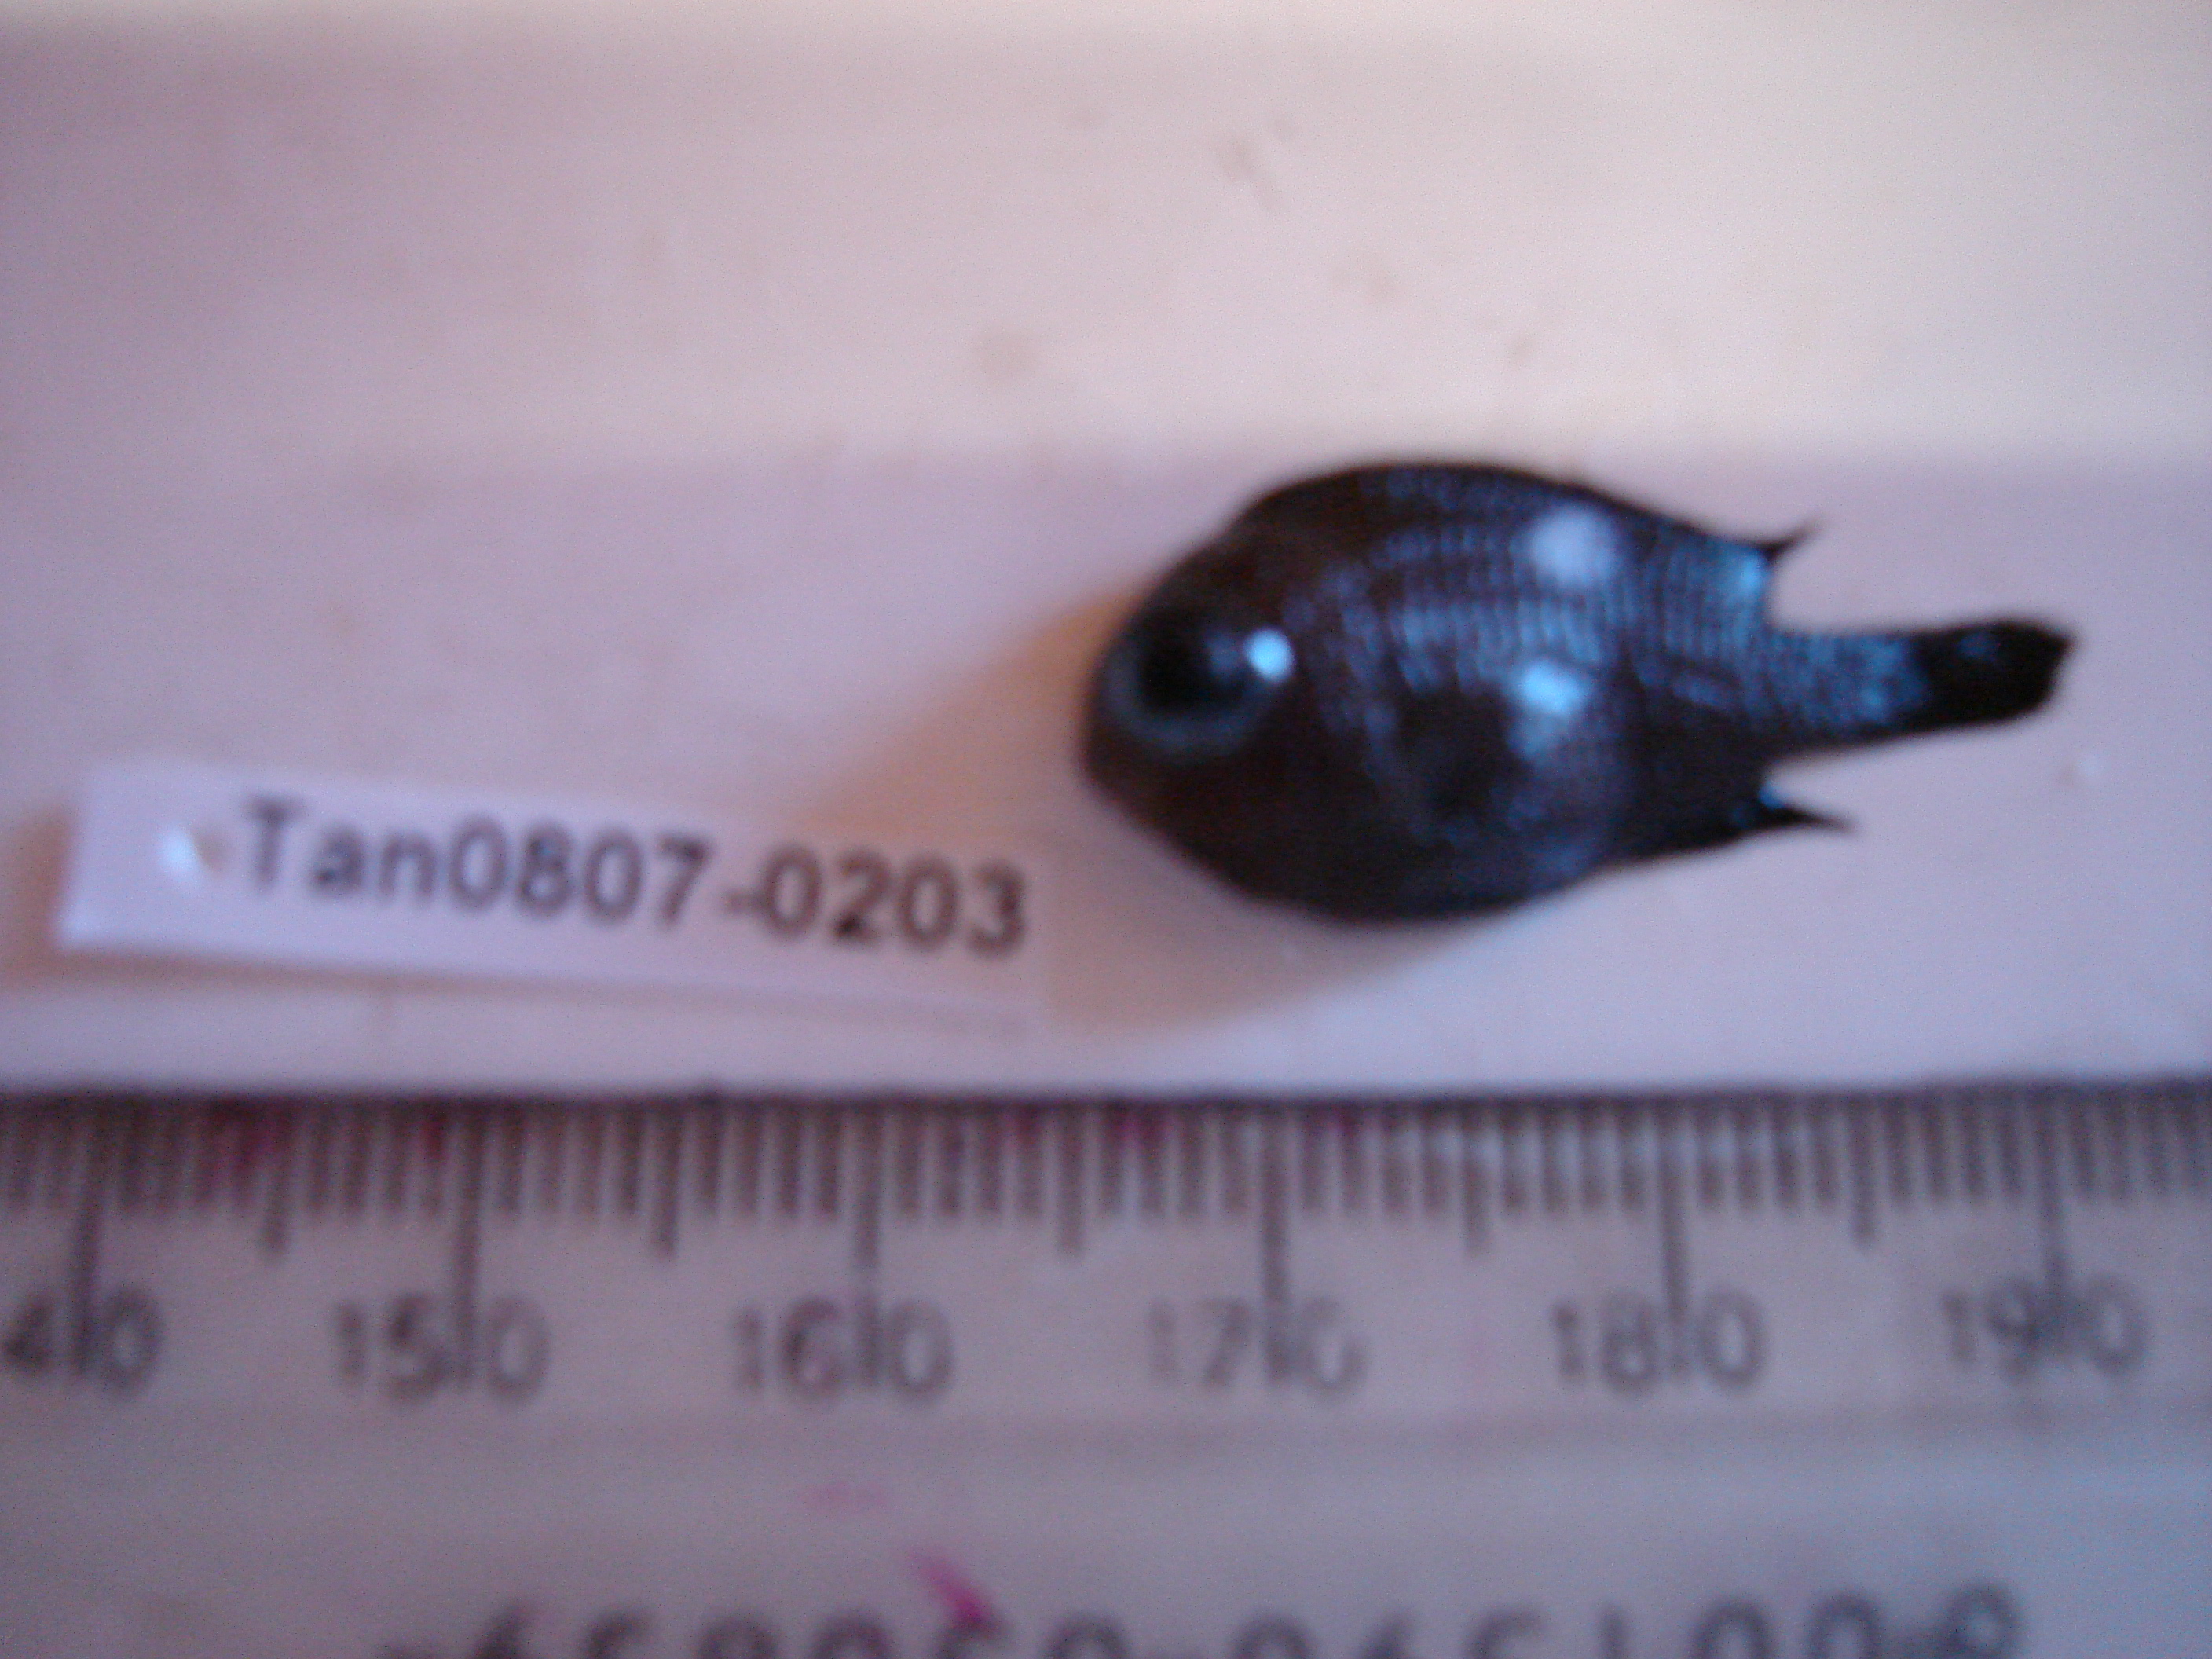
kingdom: Animalia
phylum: Chordata
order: Perciformes
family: Pomacentridae
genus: Dascyllus
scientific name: Dascyllus trimaculatus
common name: Threespot dascyllus
